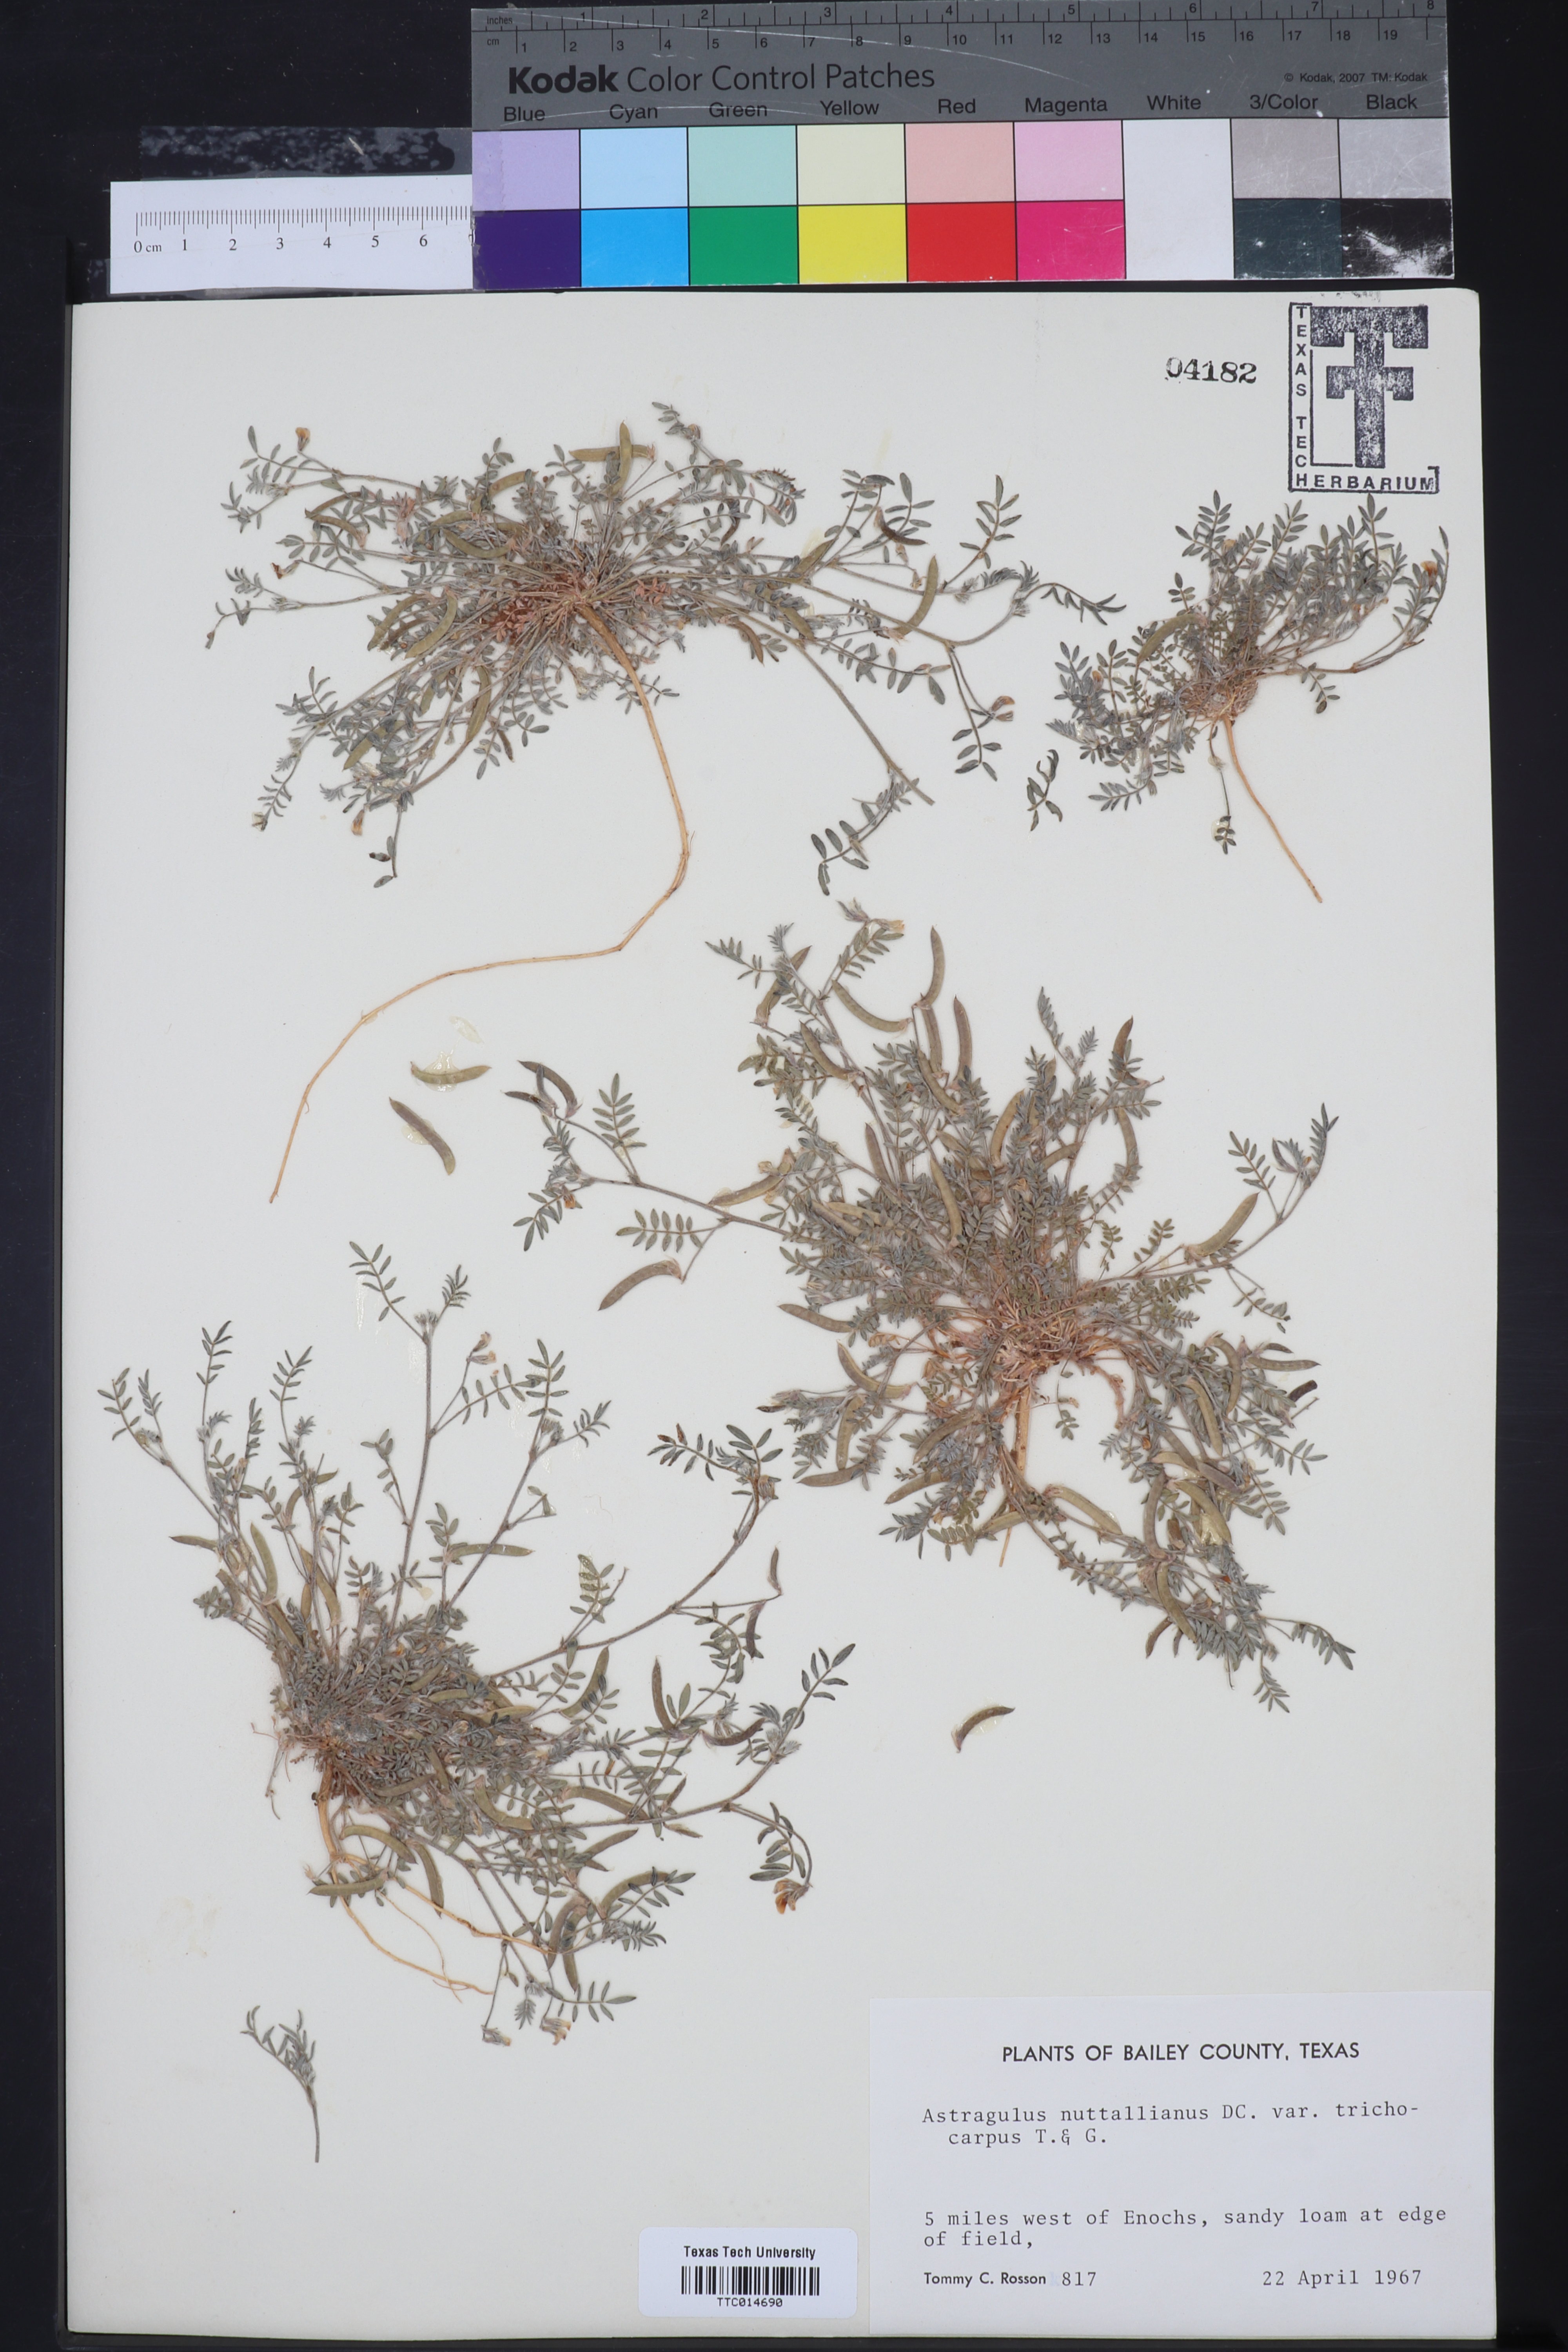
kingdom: Plantae
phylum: Tracheophyta
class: Magnoliopsida
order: Fabales
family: Fabaceae
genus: Astragalus
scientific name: Astragalus nuttallianus
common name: Smallflowered milkvetch
